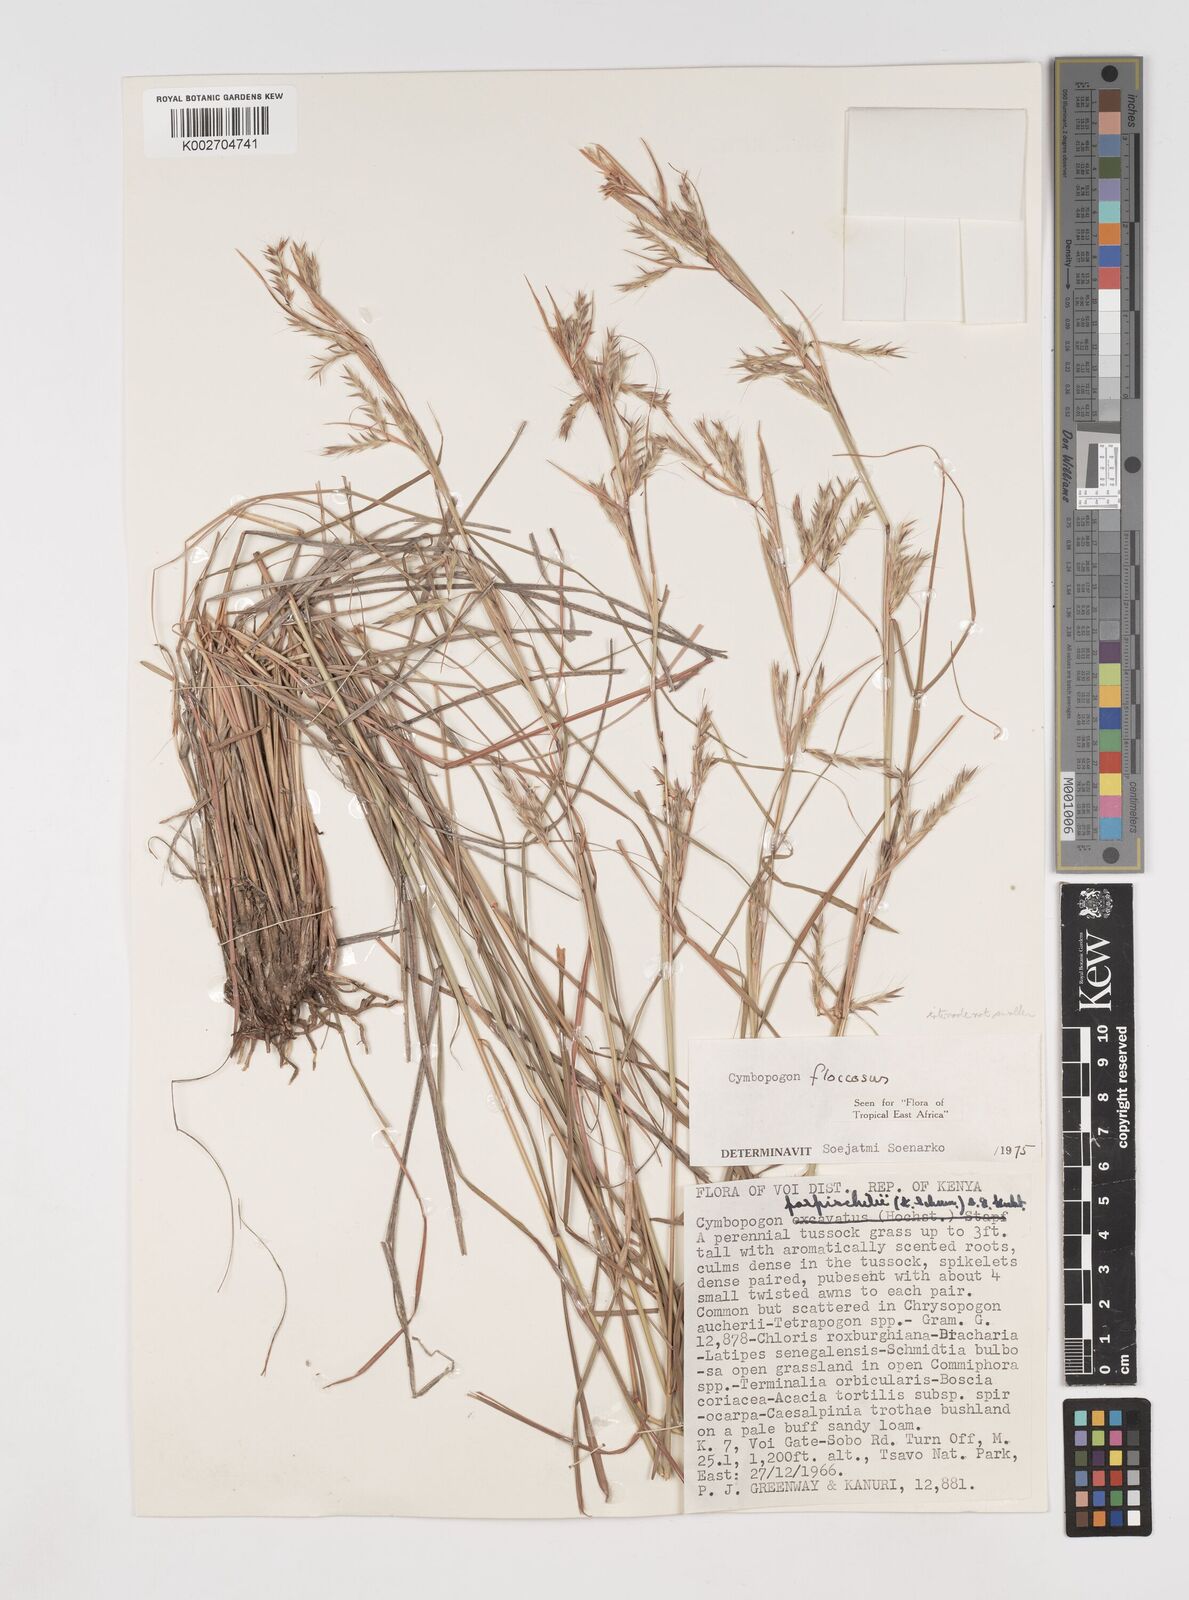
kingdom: Plantae
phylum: Tracheophyta
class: Liliopsida
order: Poales
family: Poaceae
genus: Cymbopogon
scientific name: Cymbopogon commutatus
